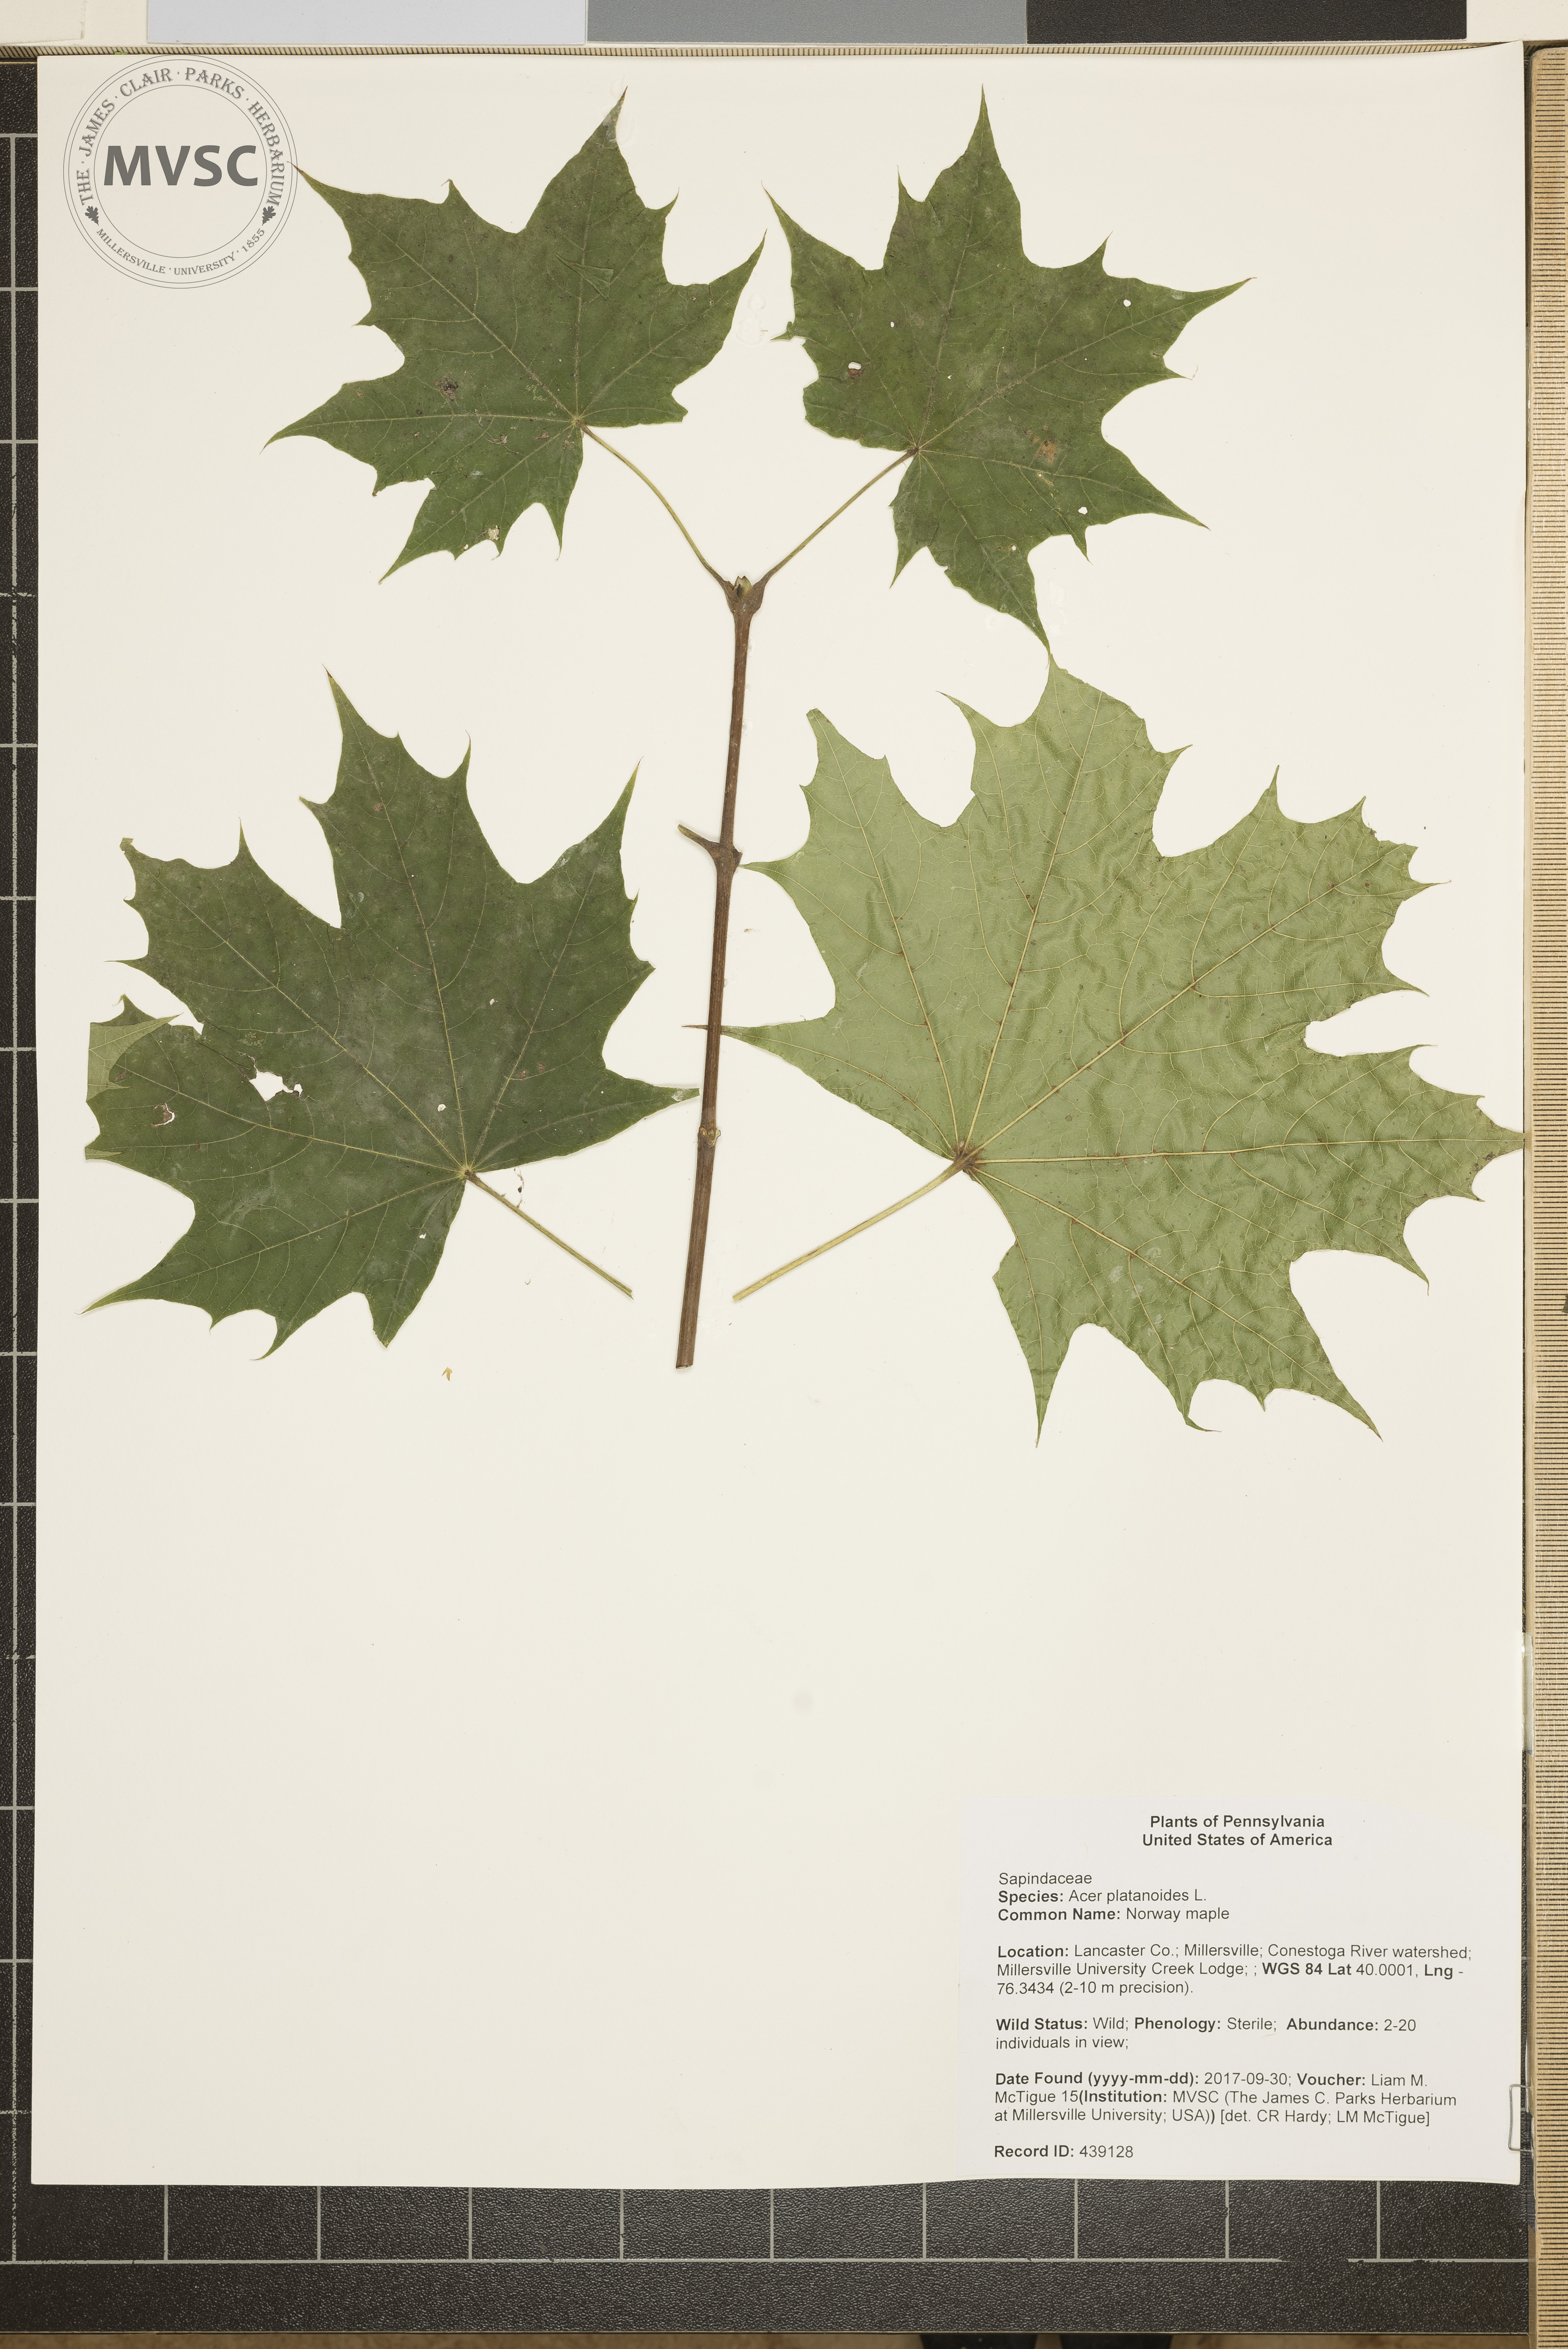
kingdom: Plantae
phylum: Tracheophyta
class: Magnoliopsida
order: Sapindales
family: Sapindaceae
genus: Acer
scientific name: Acer platanoides
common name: Norway maple
